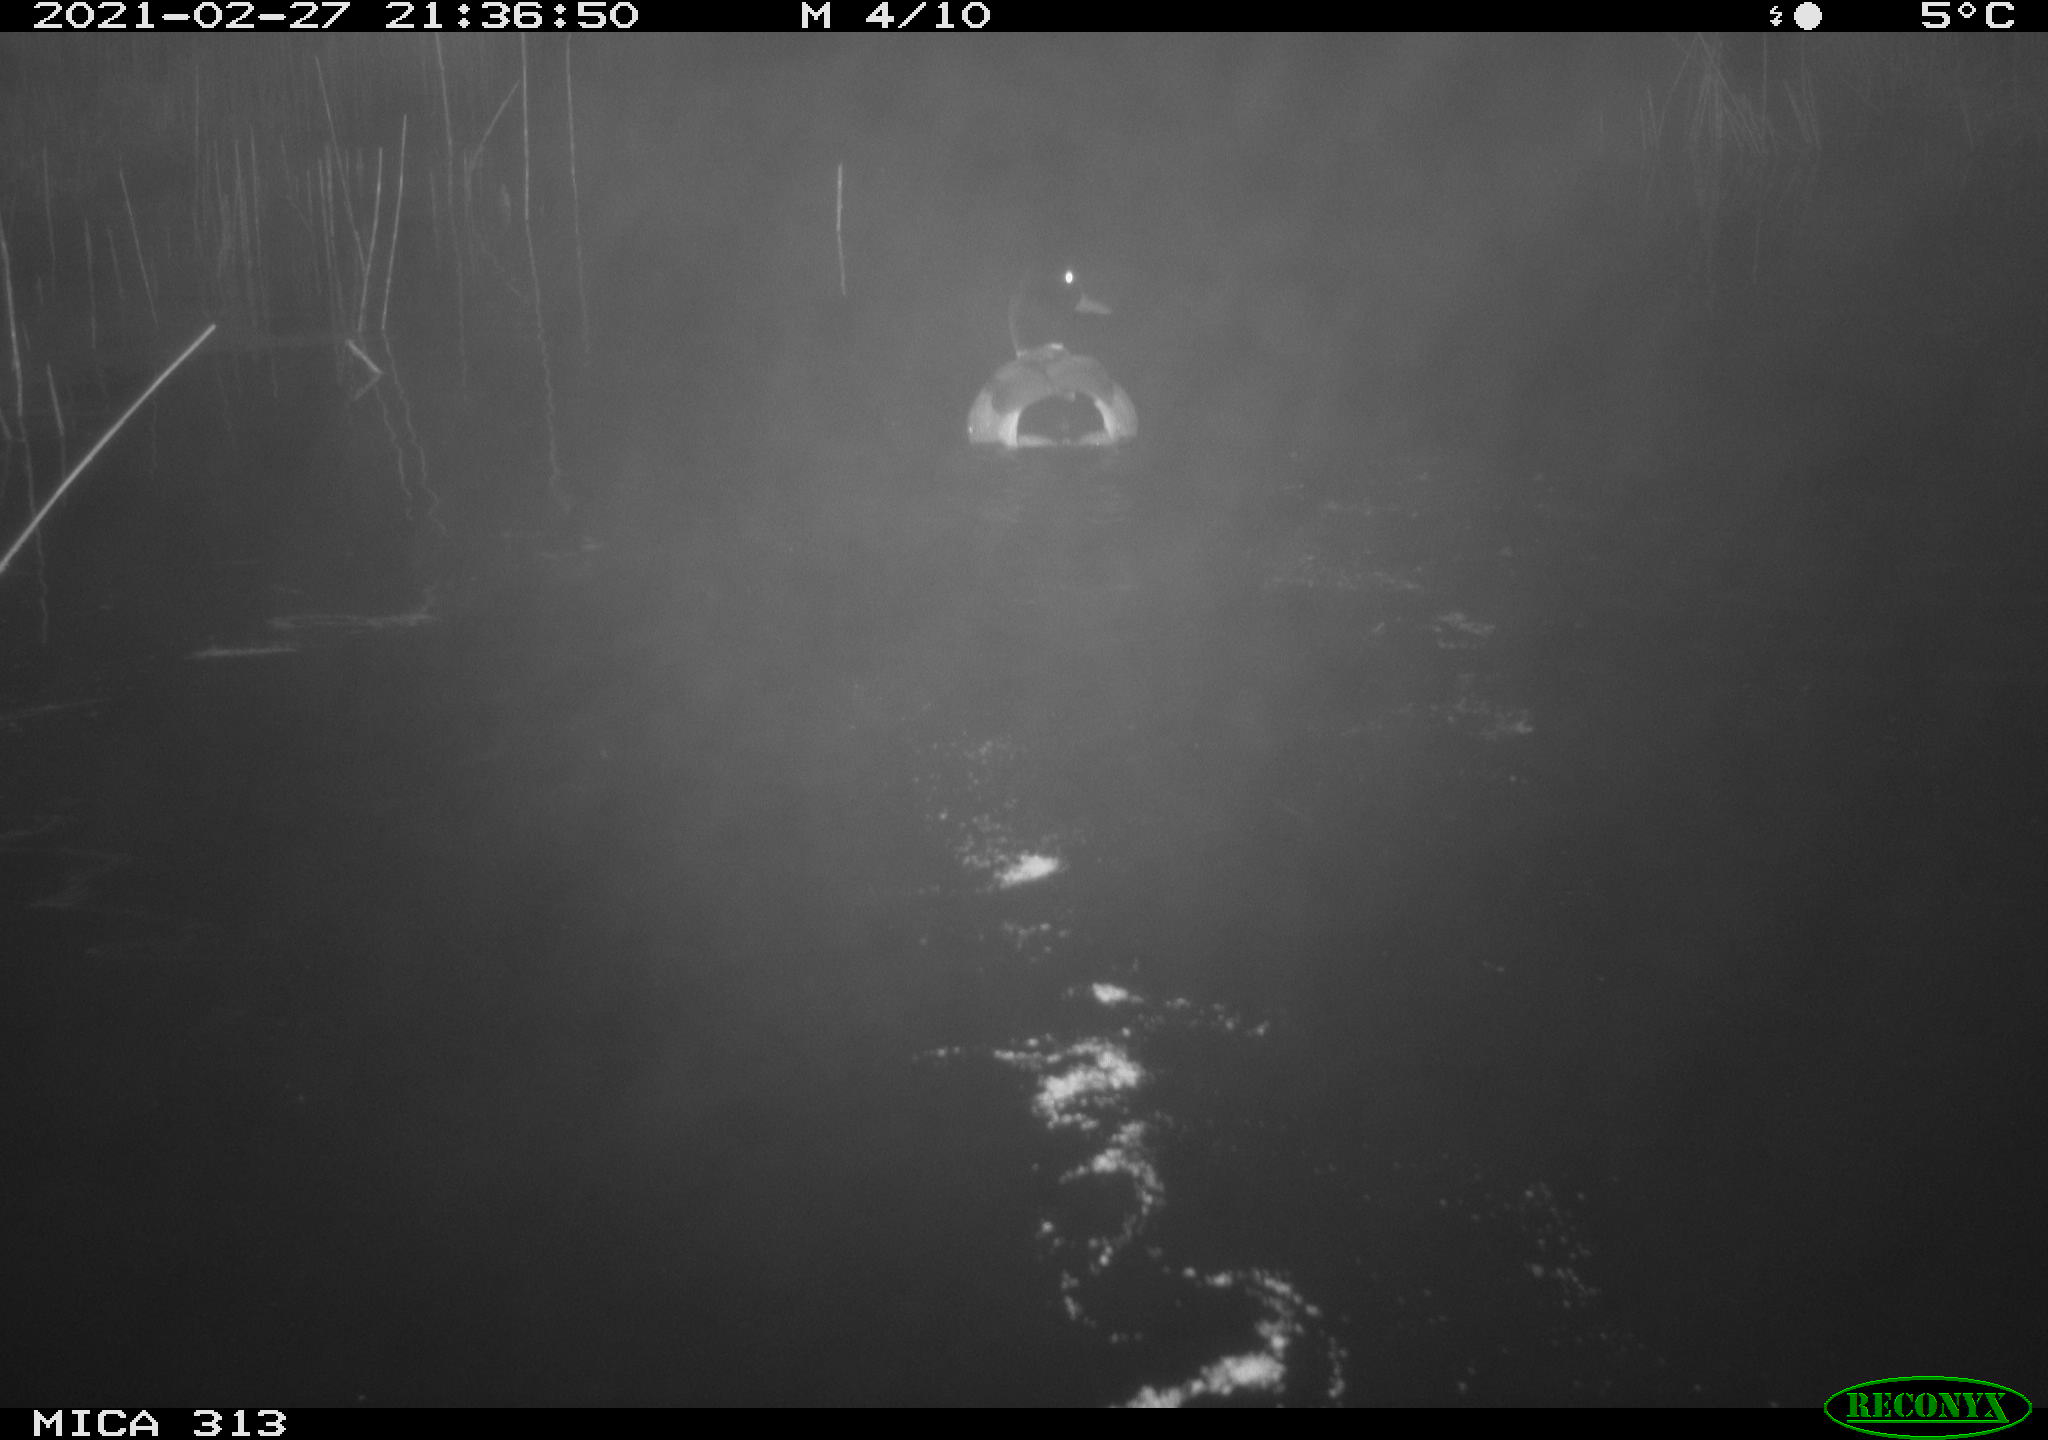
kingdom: Animalia
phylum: Chordata
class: Aves
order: Anseriformes
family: Anatidae
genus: Anas
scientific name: Anas
